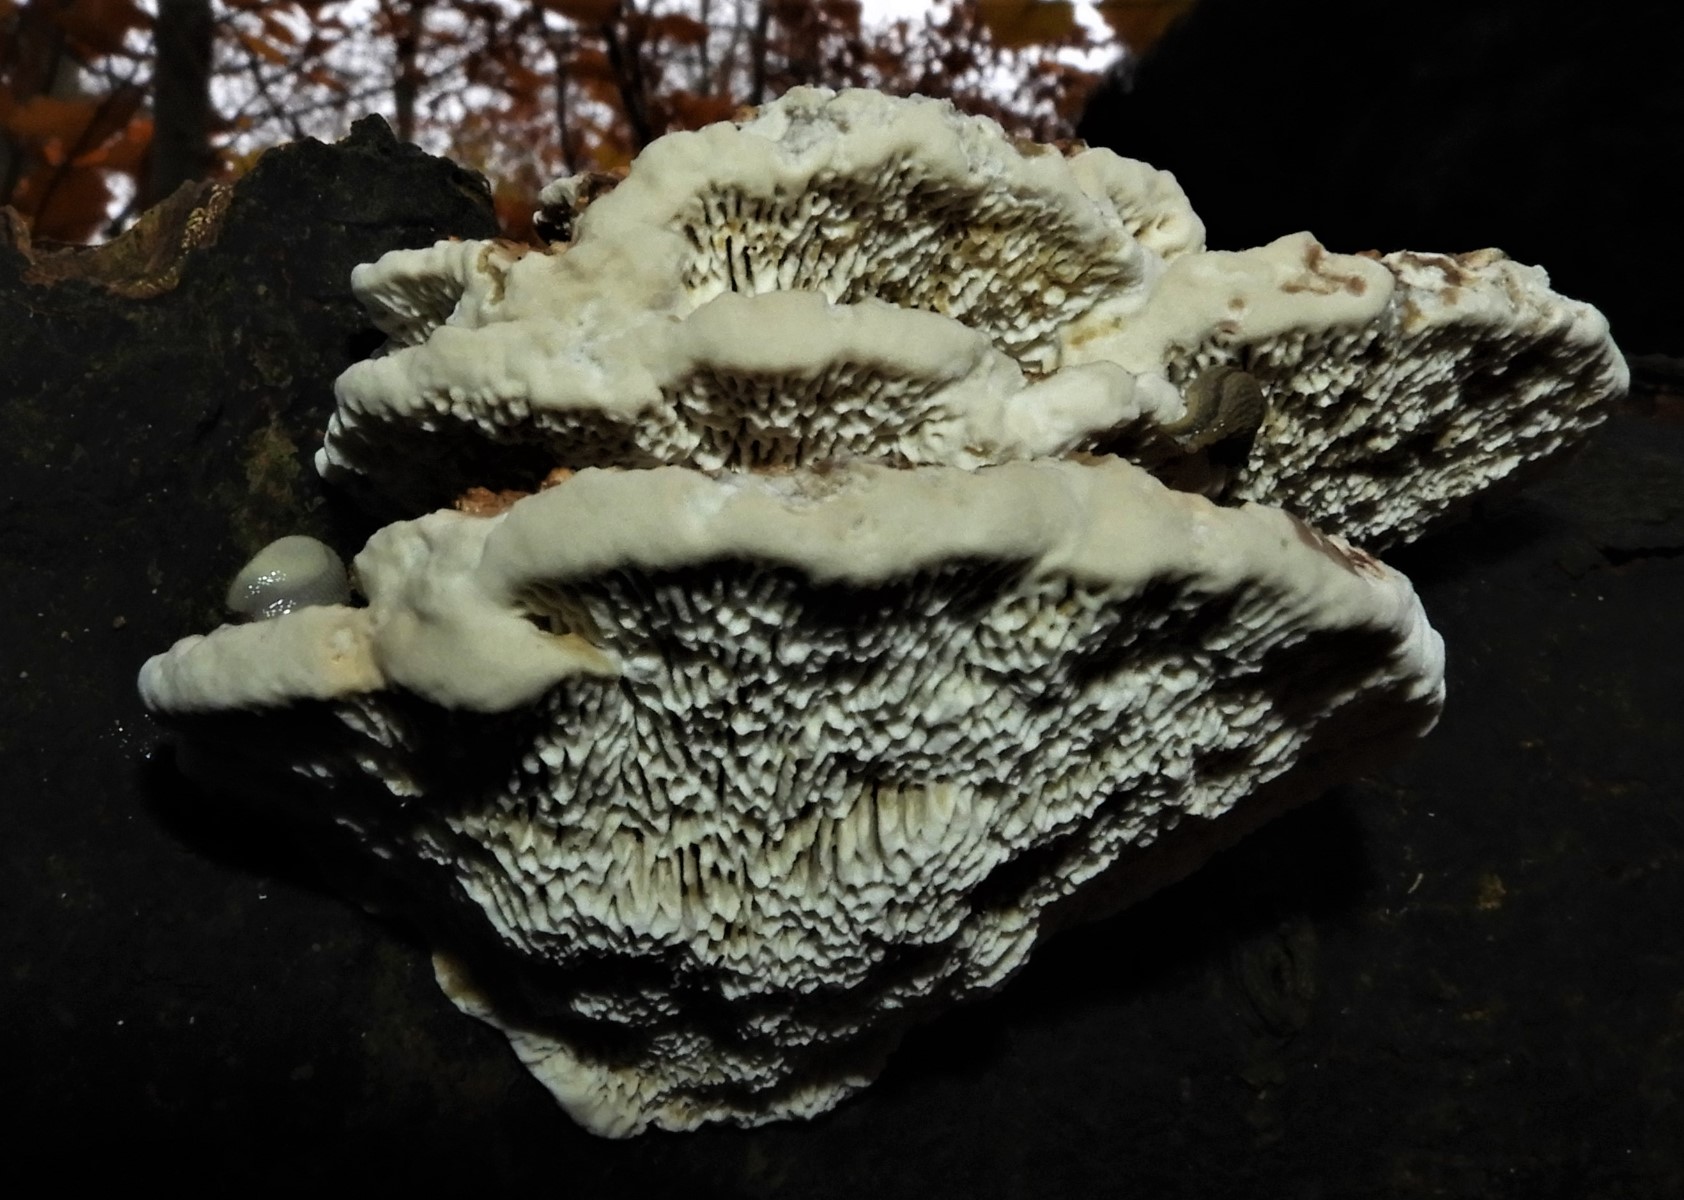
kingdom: Fungi
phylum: Basidiomycota
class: Agaricomycetes
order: Polyporales
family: Polyporaceae
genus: Daedaleopsis
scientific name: Daedaleopsis confragosa
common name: rødmende læderporesvamp
